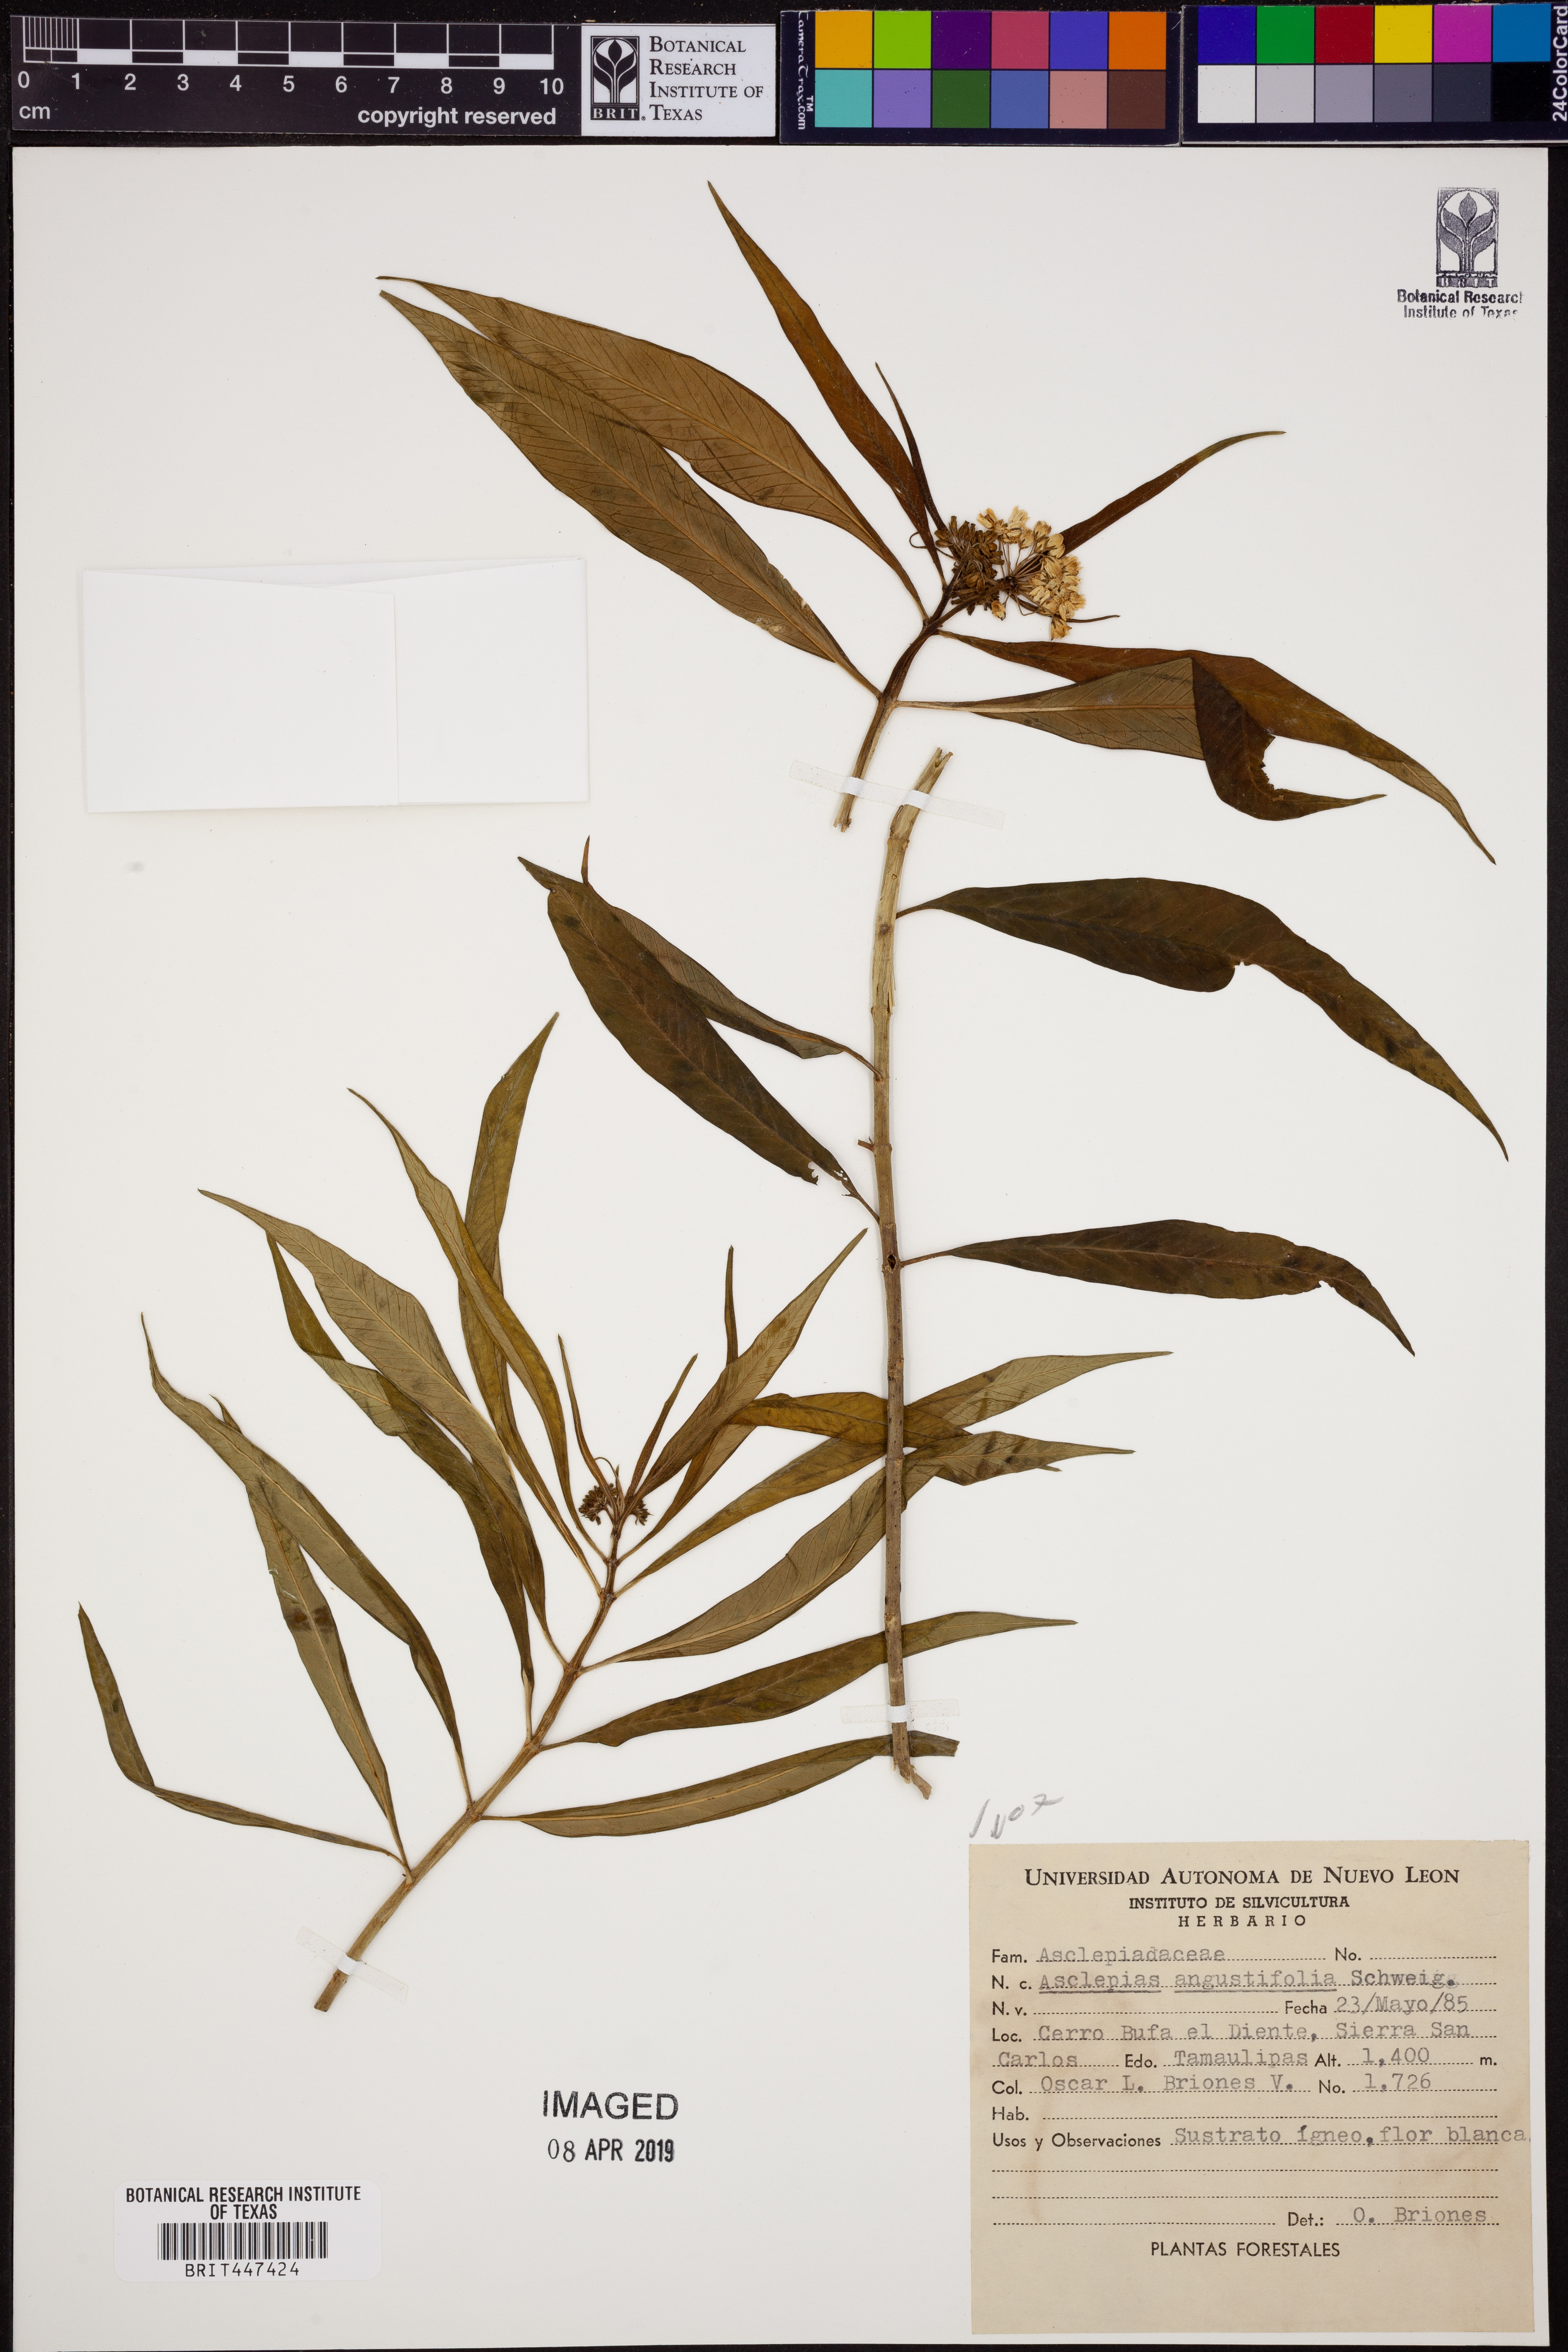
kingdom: Plantae
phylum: Tracheophyta
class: Magnoliopsida
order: Gentianales
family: Apocynaceae
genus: Asclepias
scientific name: Asclepias angustifolia
